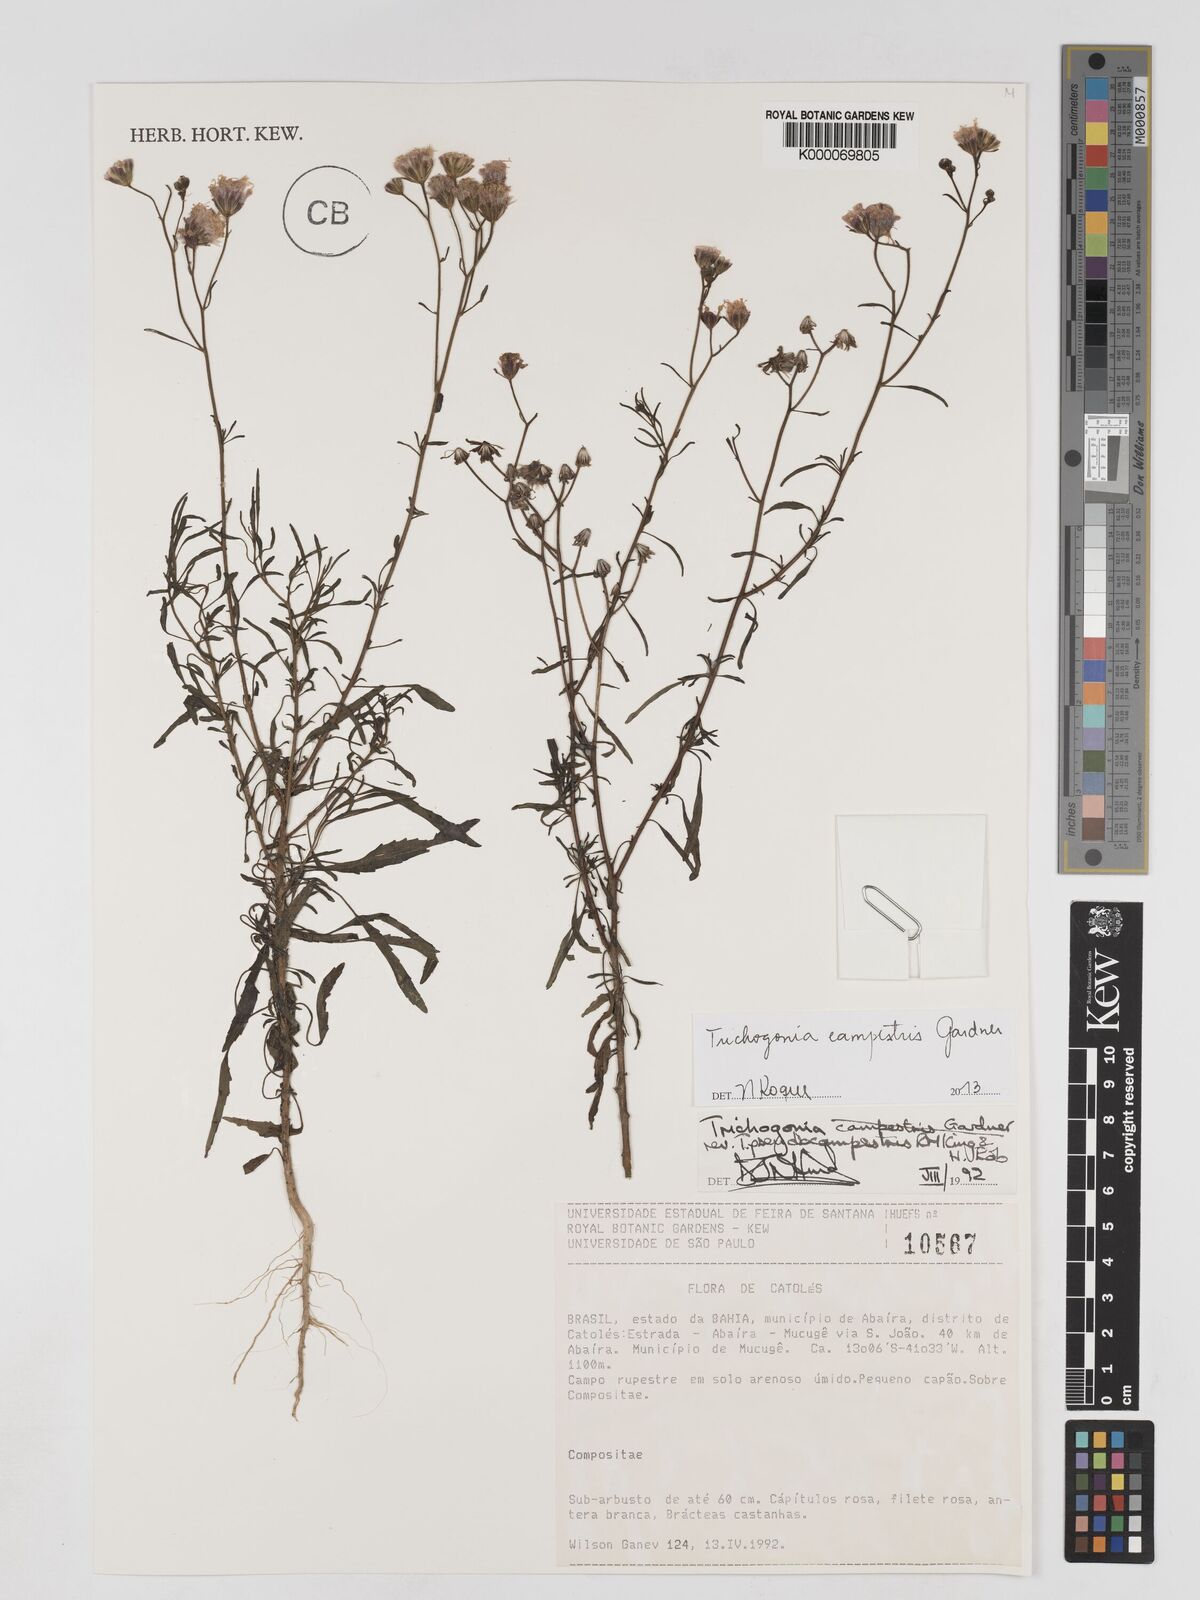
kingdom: Plantae
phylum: Tracheophyta
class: Magnoliopsida
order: Asterales
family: Asteraceae
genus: Trichogonia
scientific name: Trichogonia campestris
